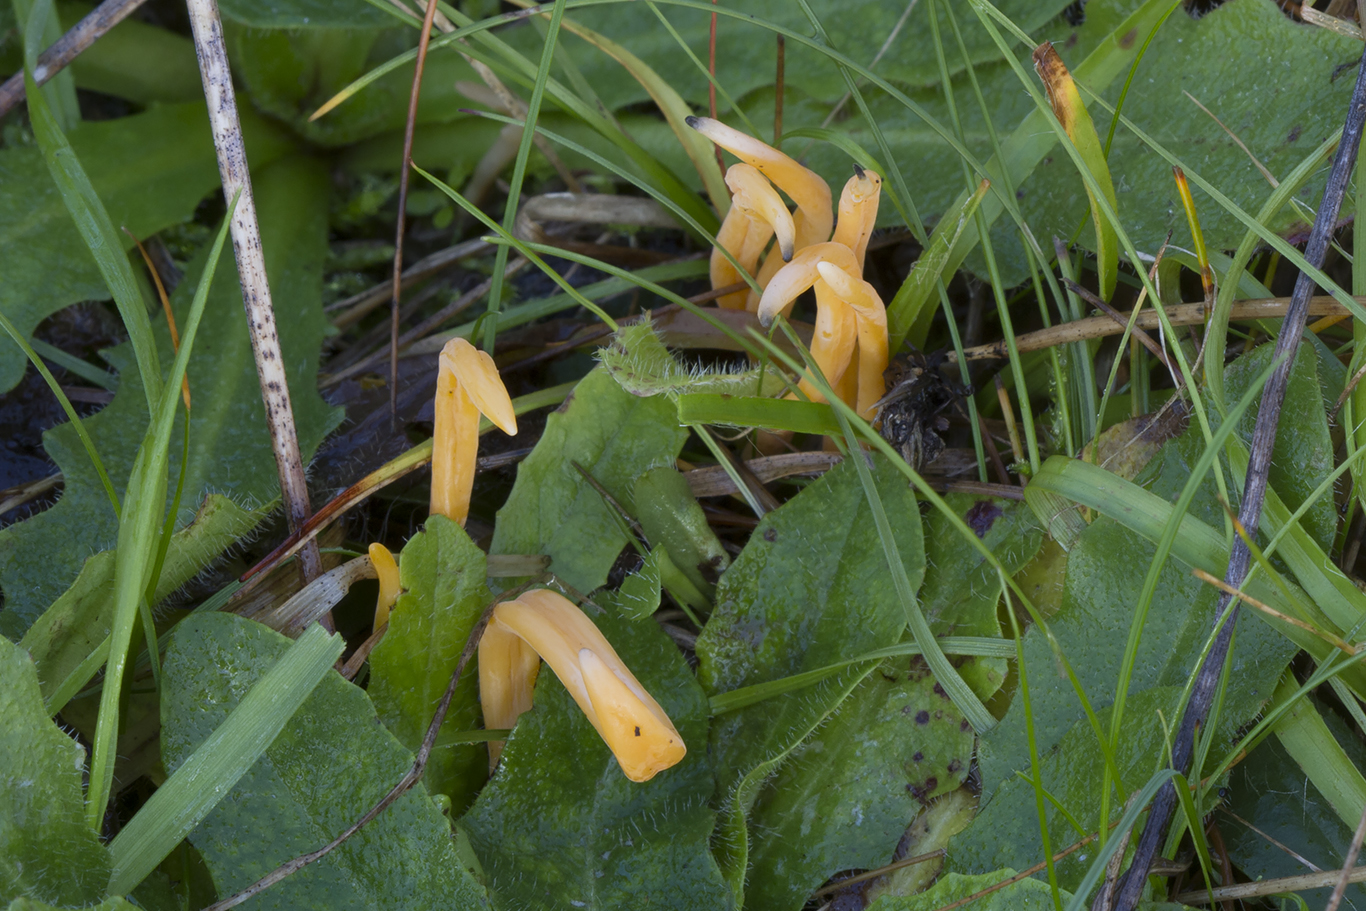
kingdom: Fungi
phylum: Basidiomycota
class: Agaricomycetes
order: Agaricales
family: Clavariaceae
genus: Clavulinopsis
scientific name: Clavulinopsis luteoalba
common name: abrikos-køllesvamp
